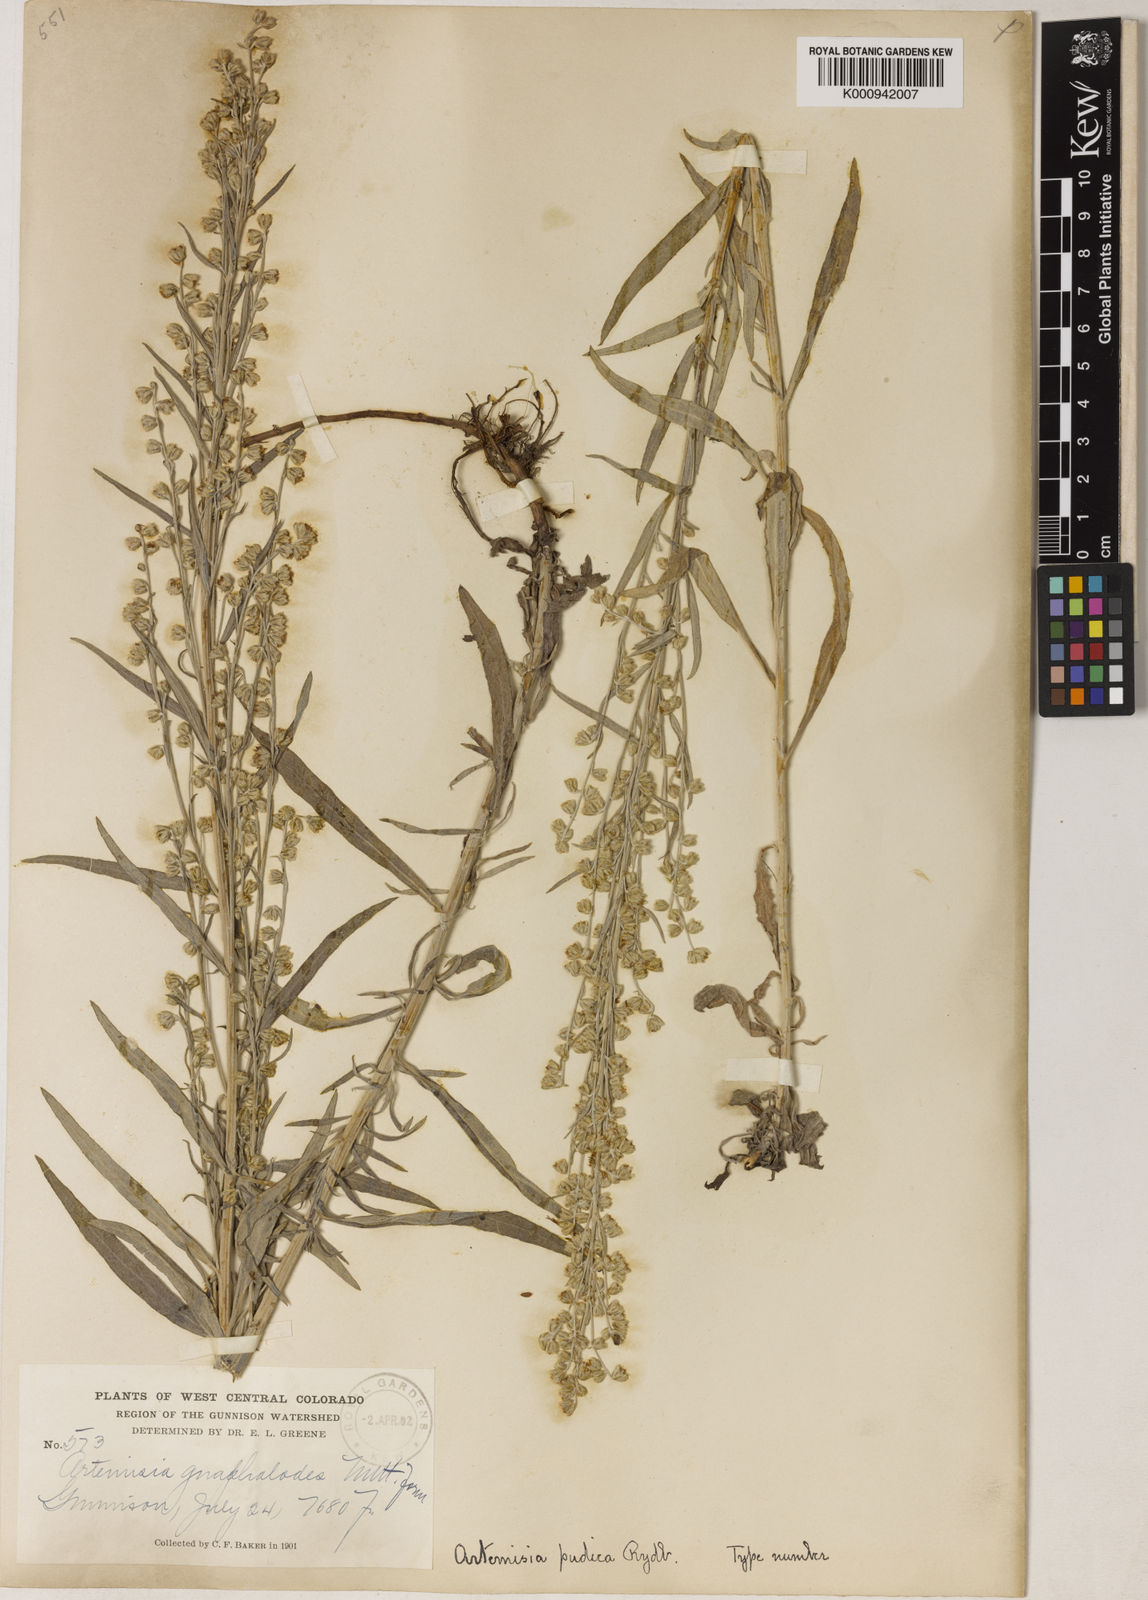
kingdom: Plantae
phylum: Tracheophyta
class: Magnoliopsida
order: Asterales
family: Asteraceae
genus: Artemisia
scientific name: Artemisia ludoviciana
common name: Western mugwort
